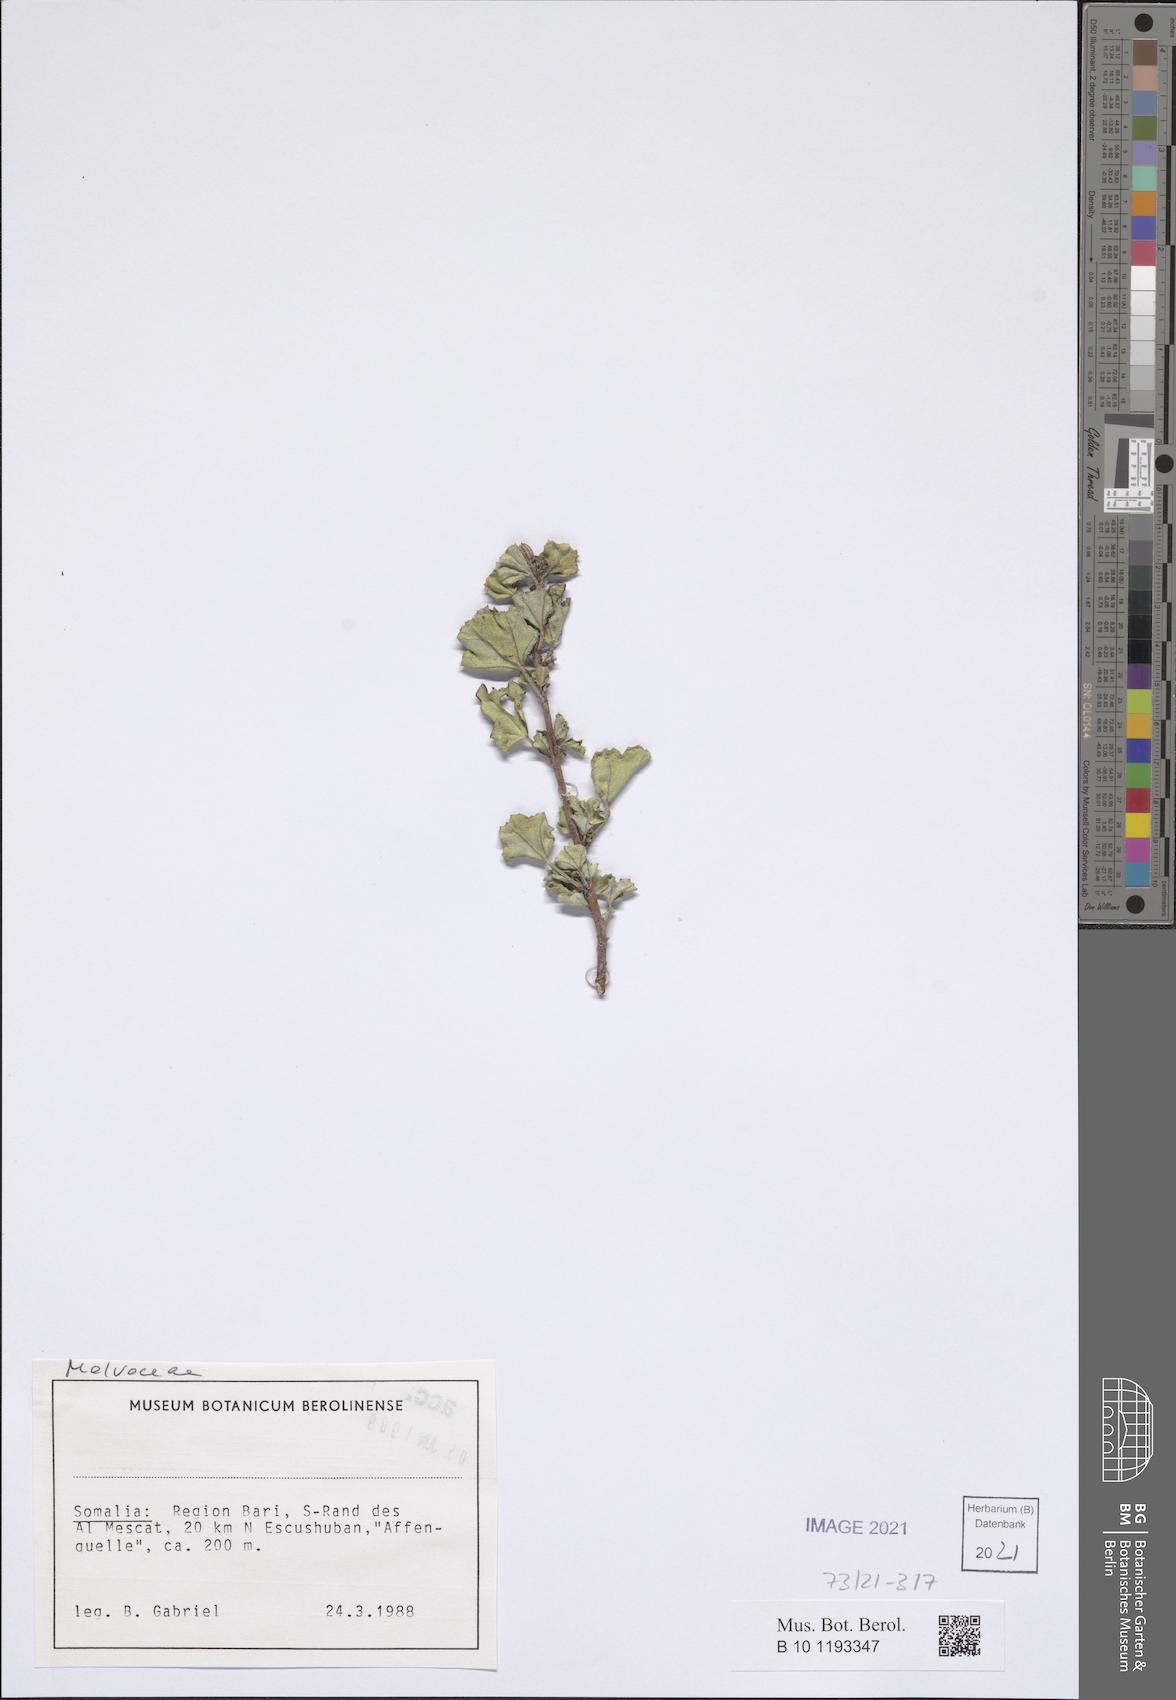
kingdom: Plantae
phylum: Tracheophyta
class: Magnoliopsida
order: Malvales
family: Malvaceae
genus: Cienfuegosia
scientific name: Cienfuegosia welshii
